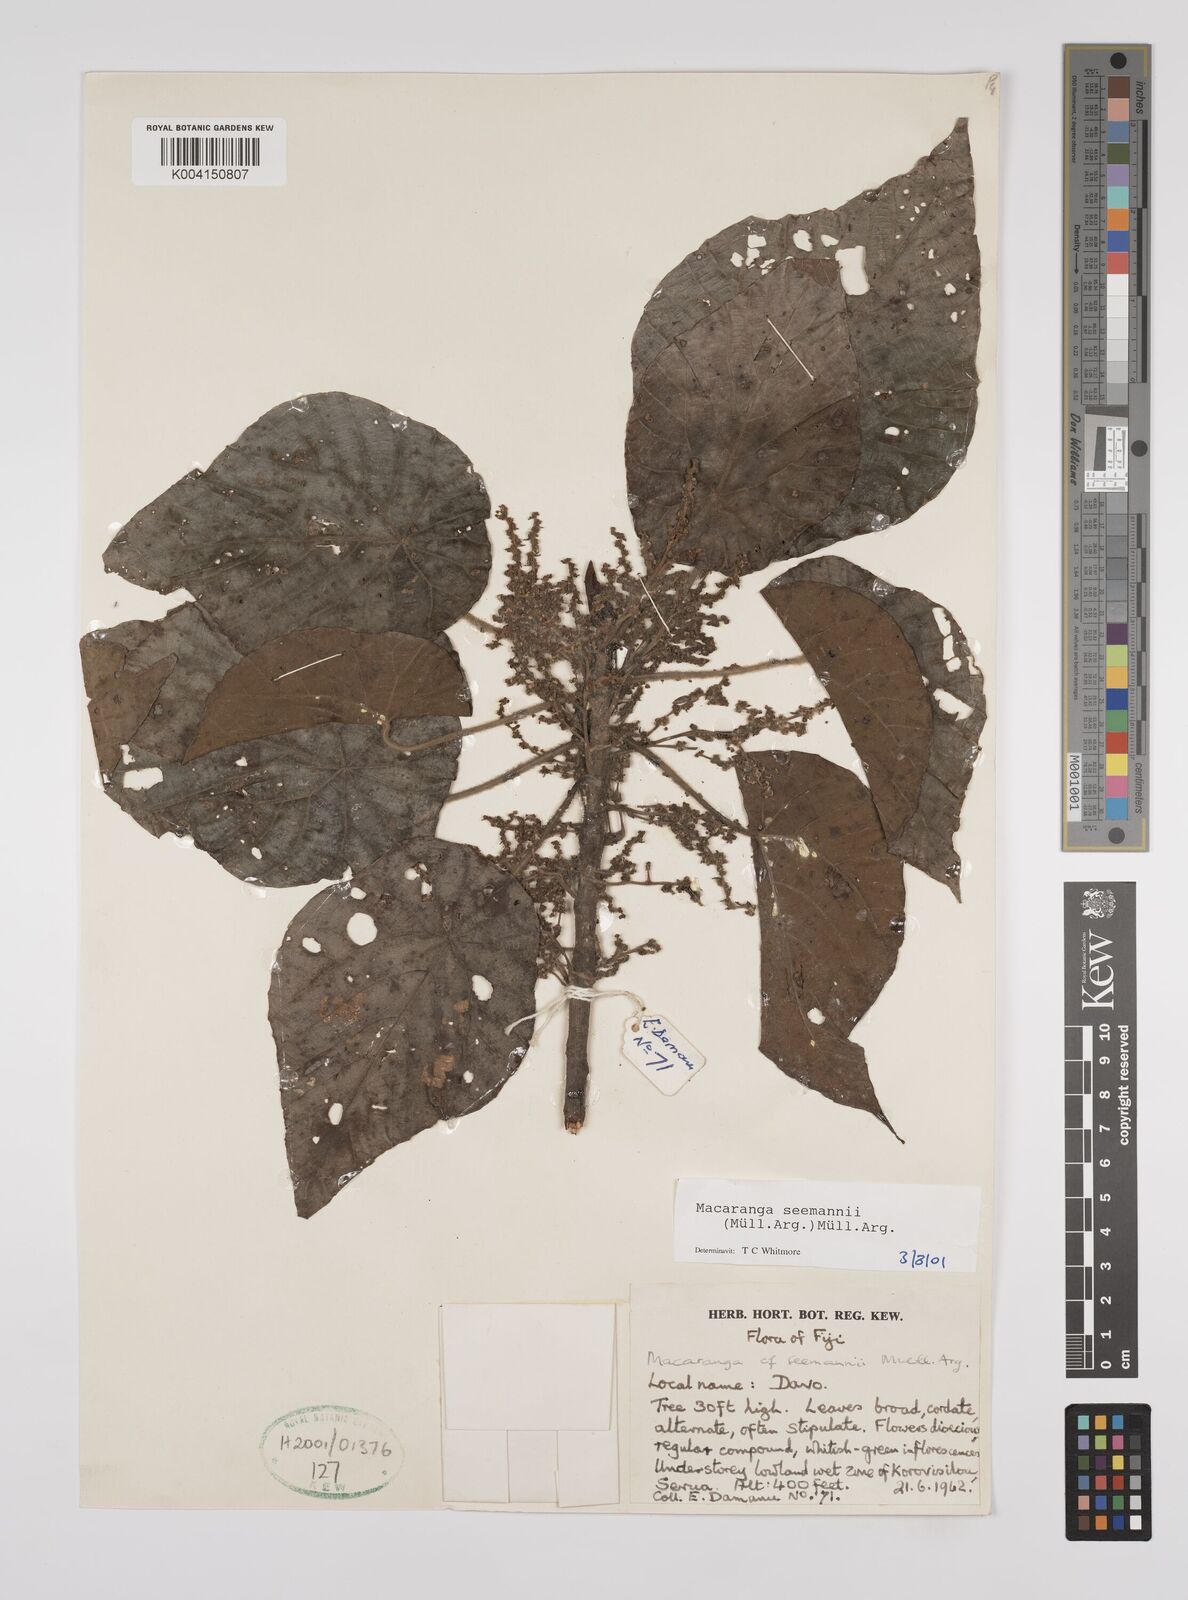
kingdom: Plantae
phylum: Tracheophyta
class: Magnoliopsida
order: Malpighiales
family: Euphorbiaceae
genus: Macaranga
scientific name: Macaranga seemannii
